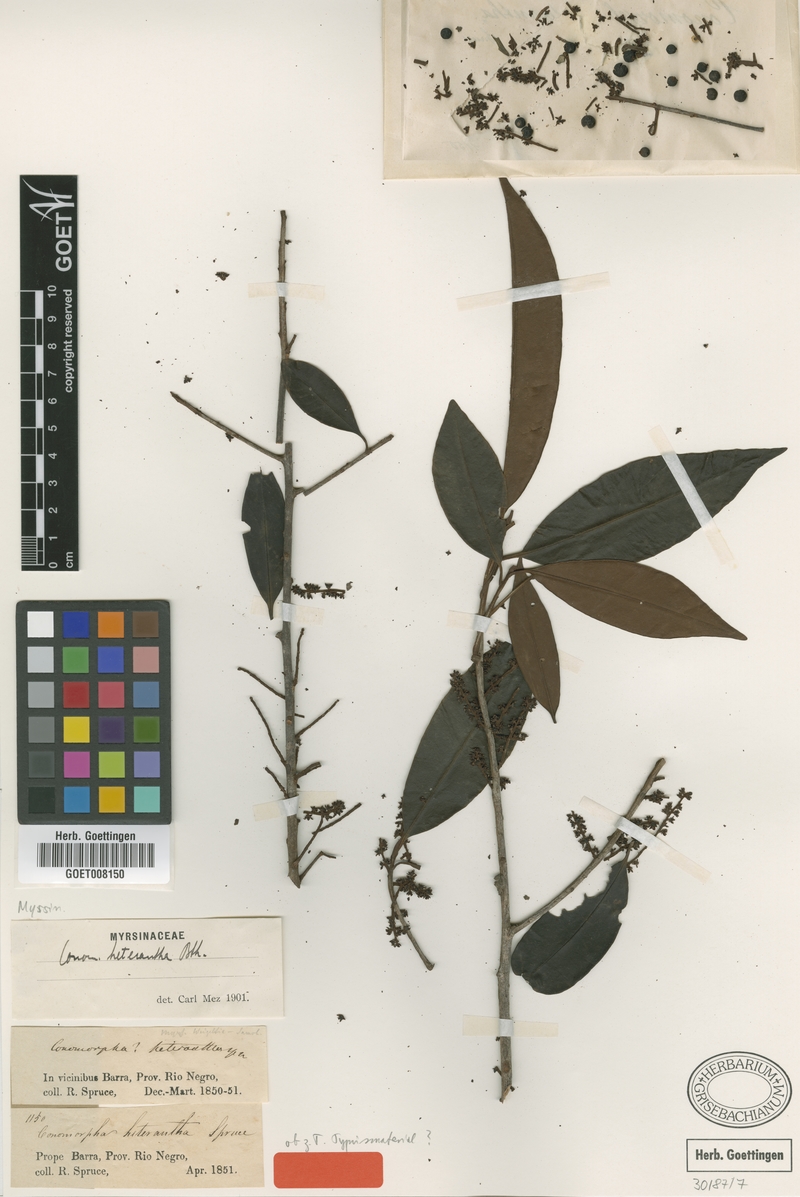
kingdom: Plantae
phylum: Tracheophyta
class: Magnoliopsida
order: Ericales
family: Primulaceae
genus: Cybianthus
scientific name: Cybianthus guyanensis
